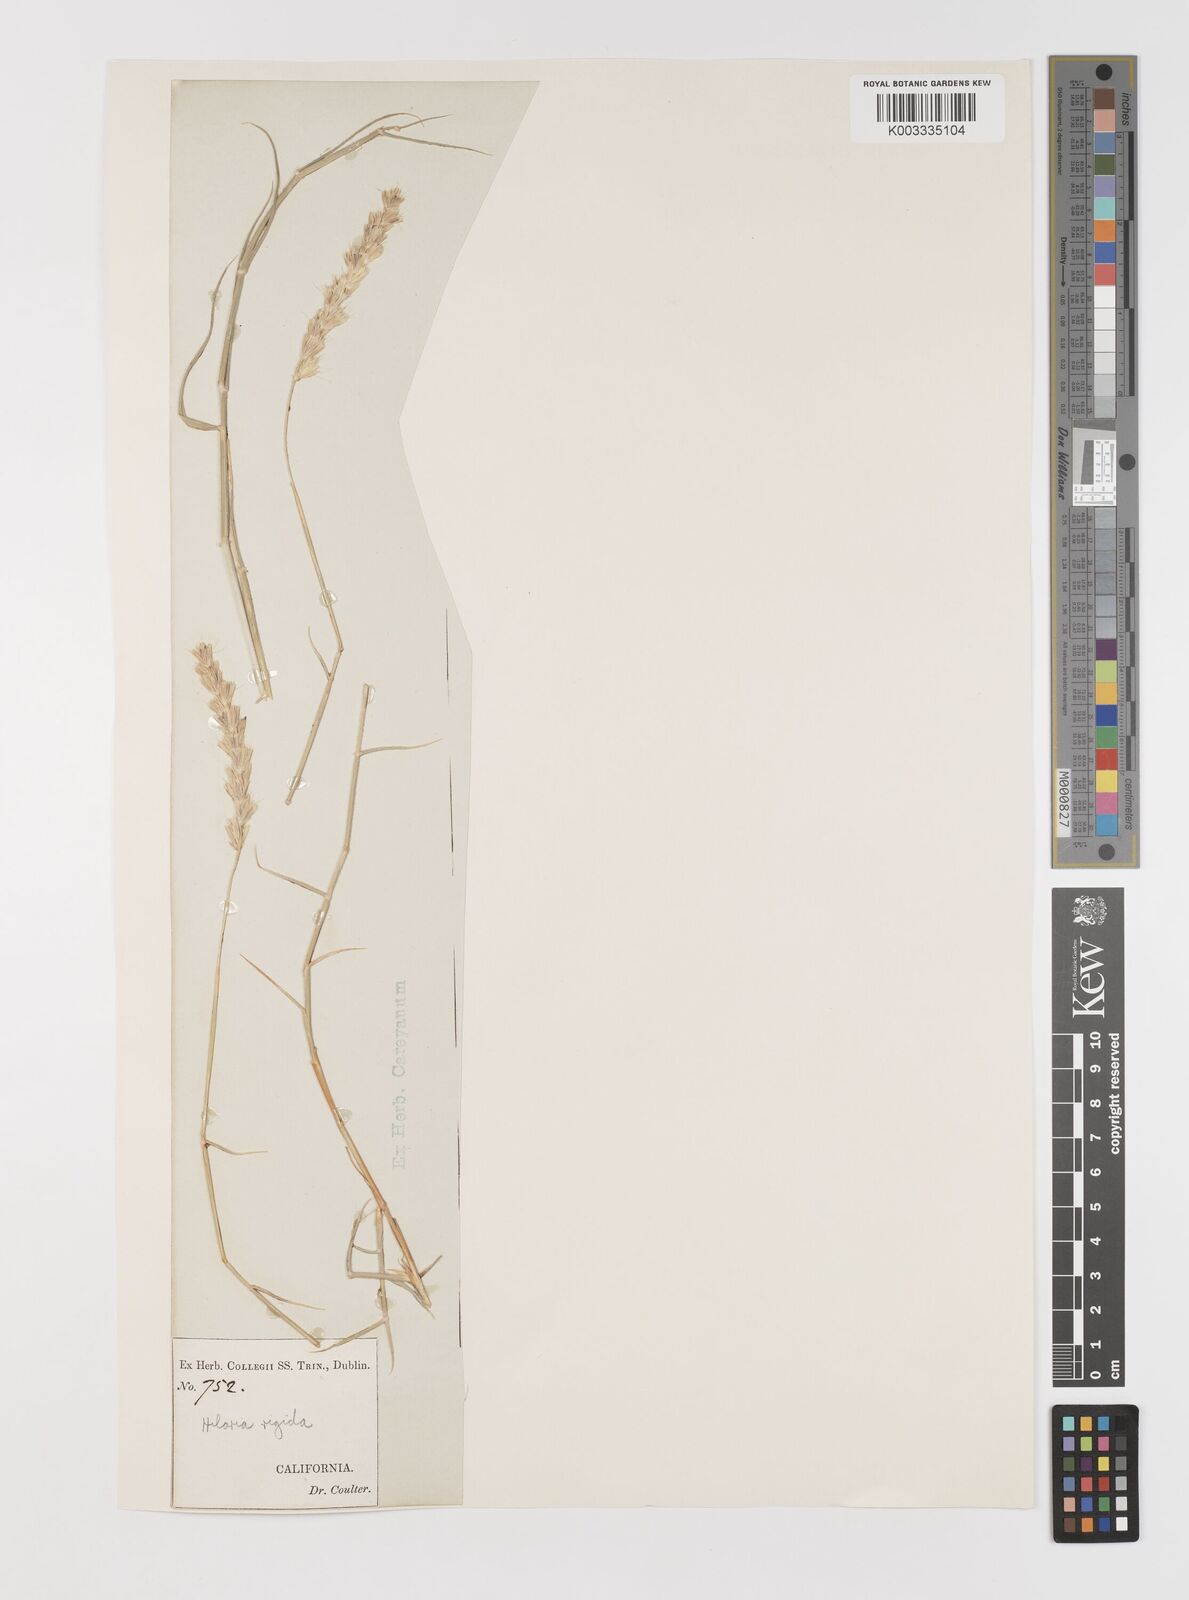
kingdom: Plantae
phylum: Tracheophyta
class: Liliopsida
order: Poales
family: Poaceae
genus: Hilaria
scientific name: Hilaria rigida
